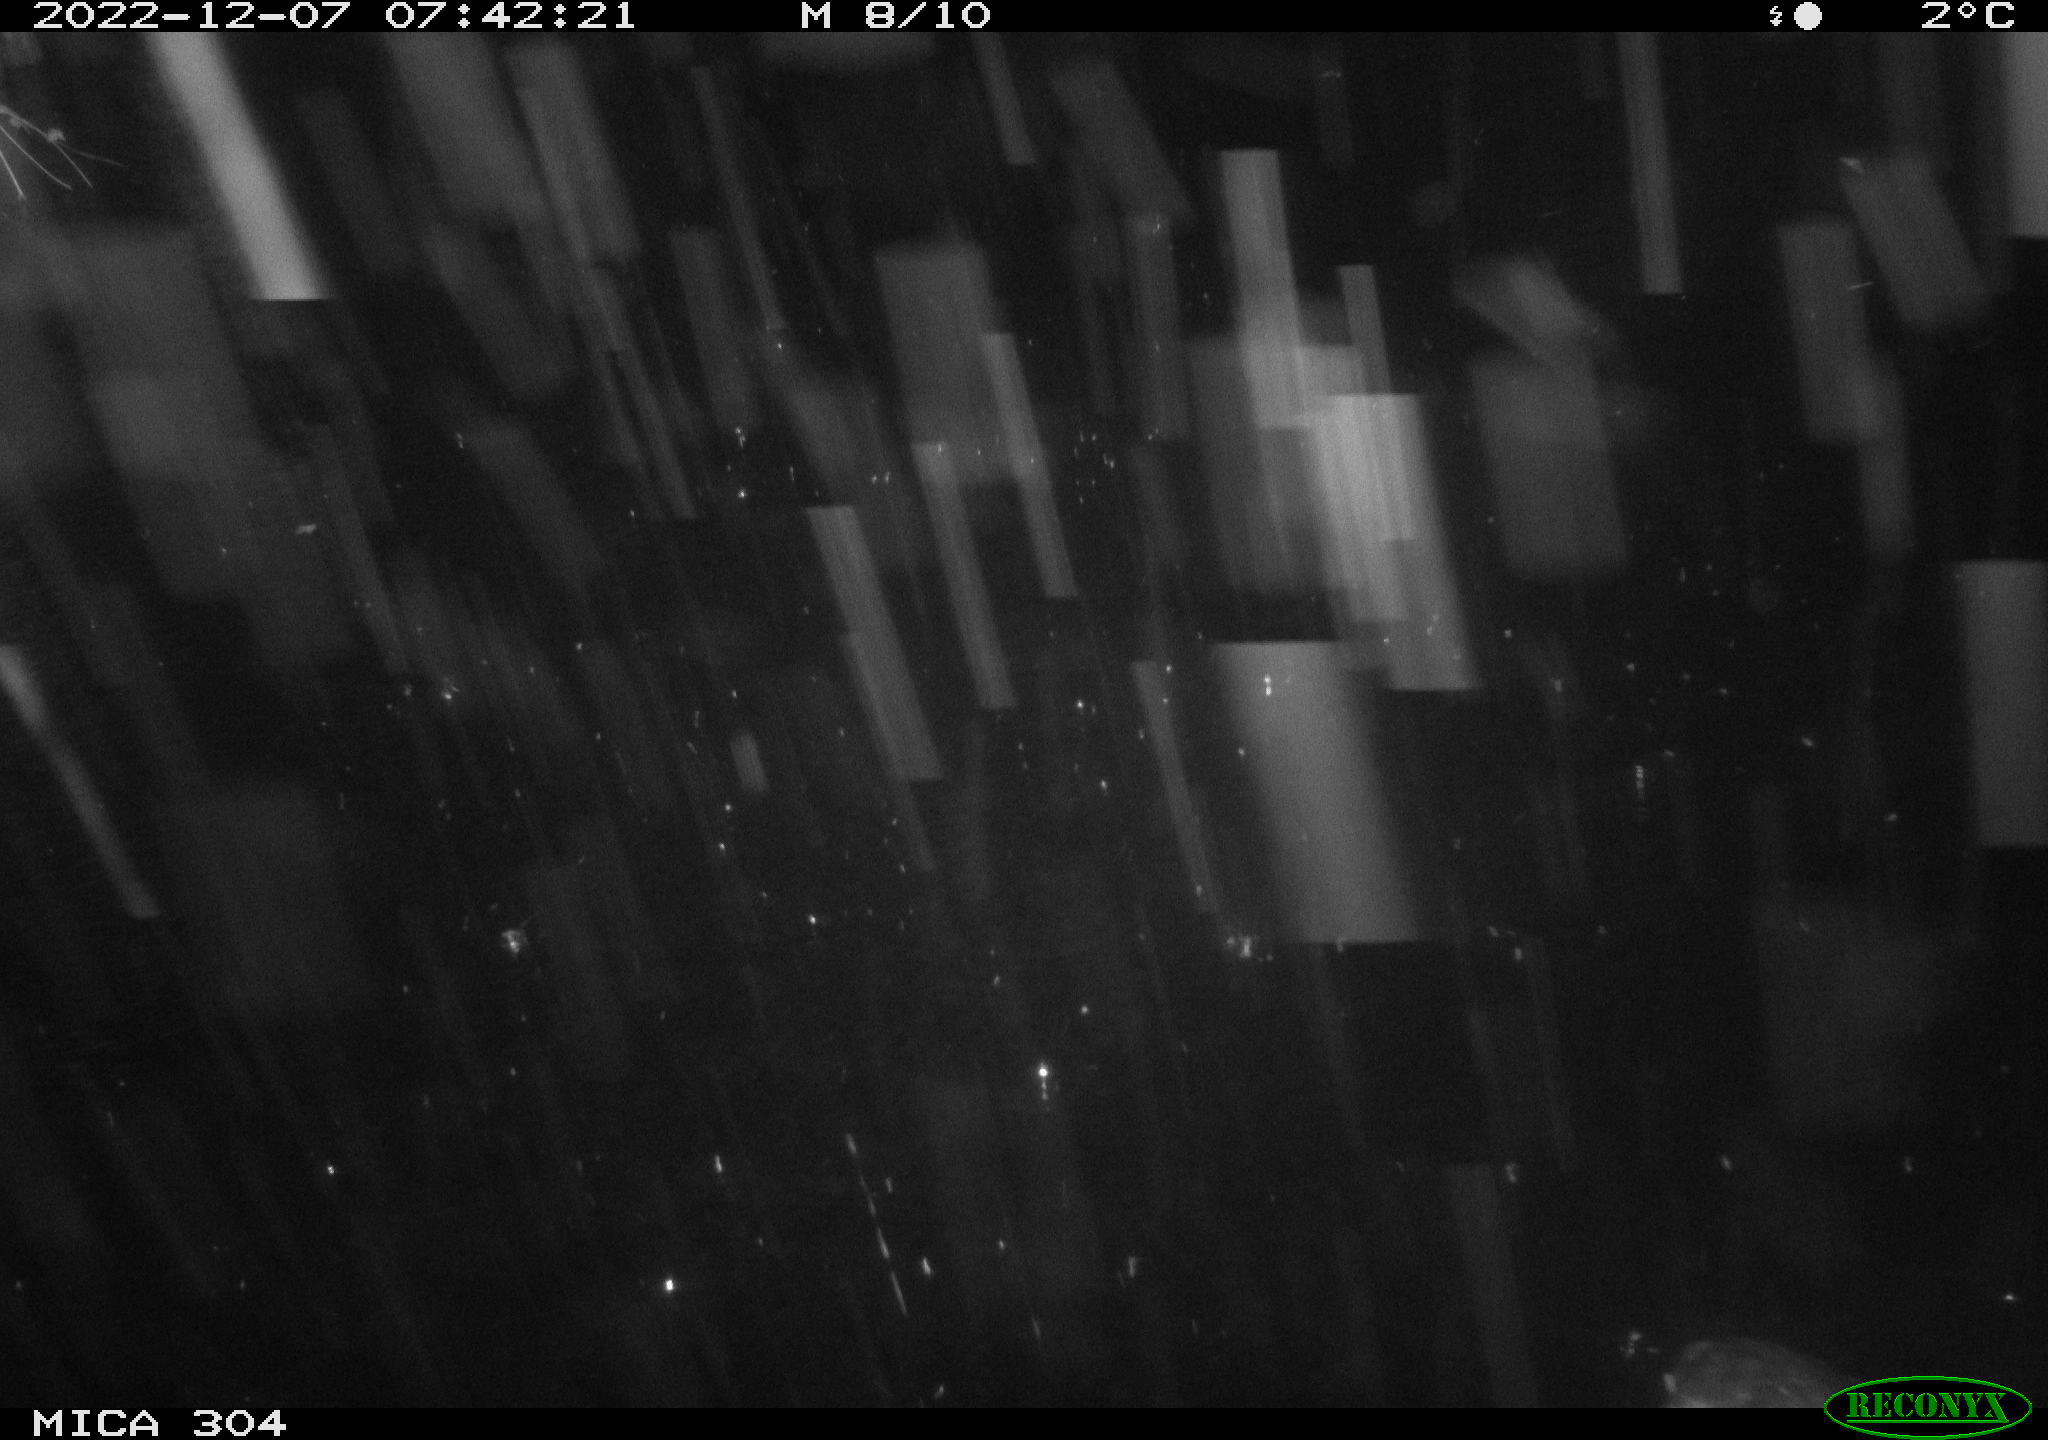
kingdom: Animalia
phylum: Chordata
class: Aves
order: Gruiformes
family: Rallidae
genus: Fulica
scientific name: Fulica atra
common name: Eurasian coot
